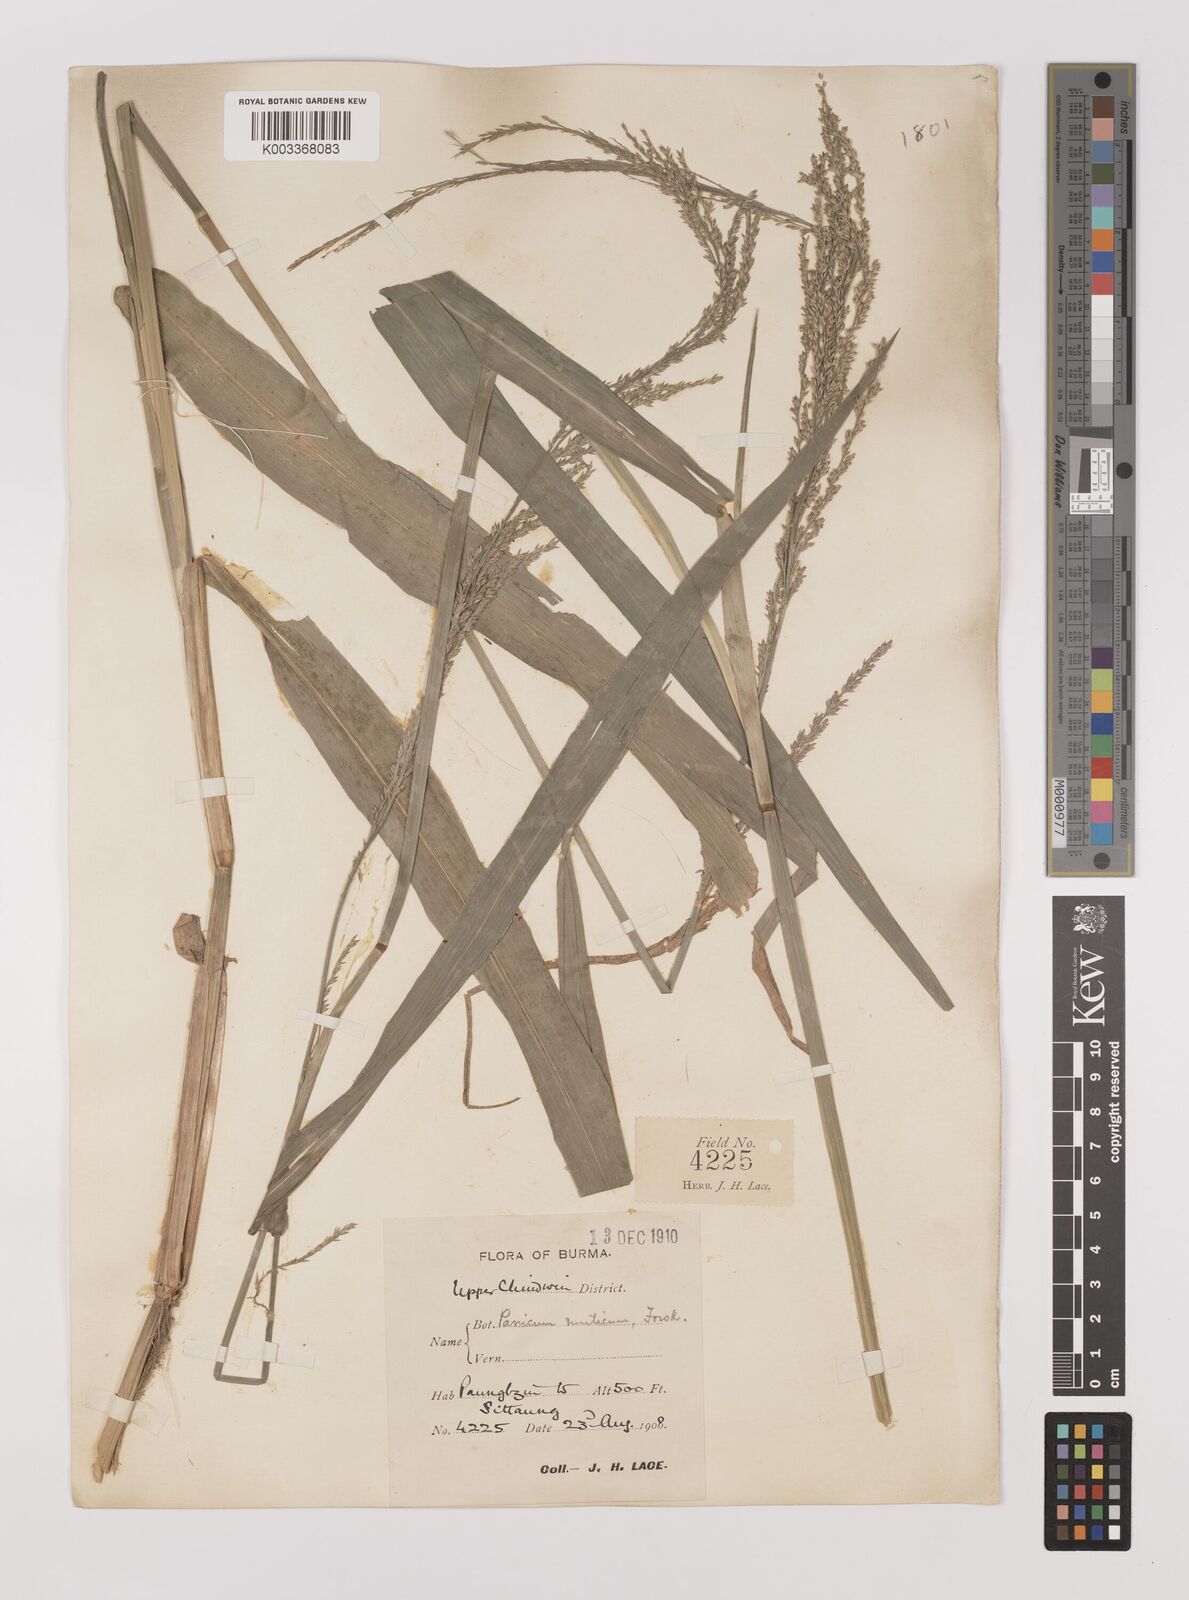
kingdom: Plantae
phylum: Tracheophyta
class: Liliopsida
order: Poales
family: Poaceae
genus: Hymenachne
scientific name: Hymenachne aurita
